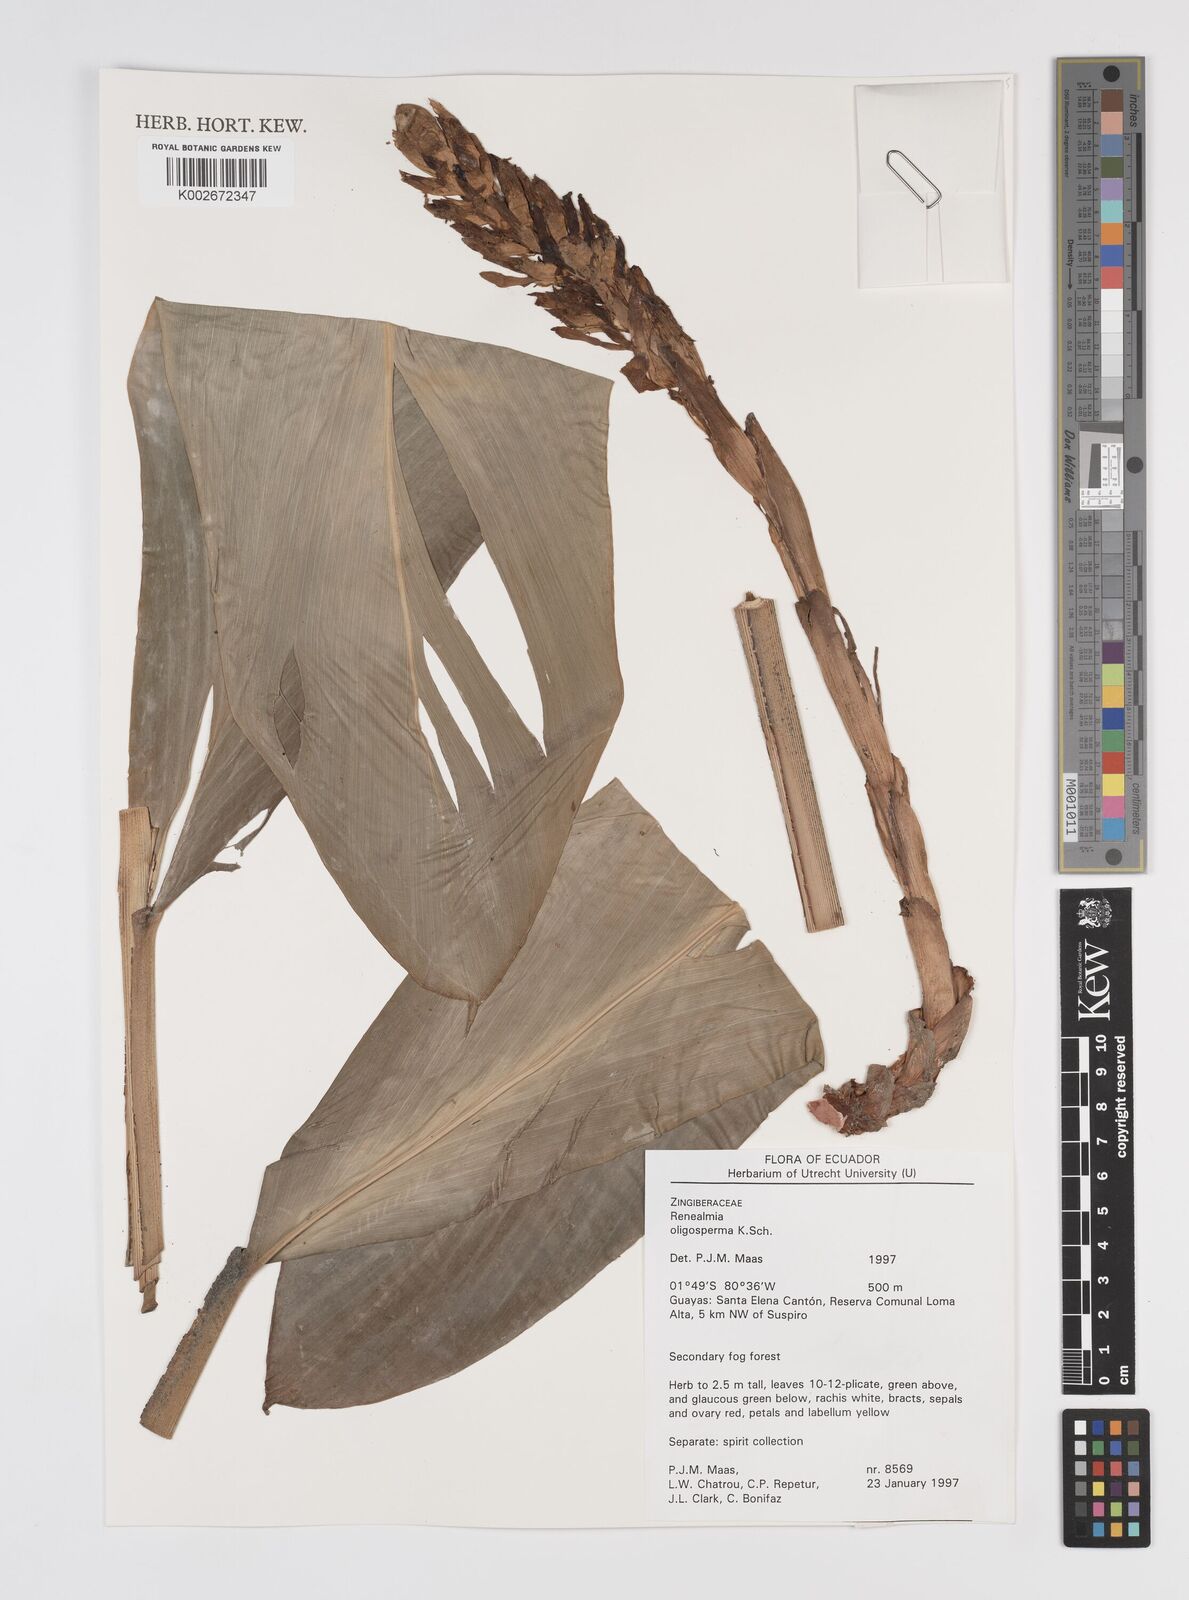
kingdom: Plantae
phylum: Tracheophyta
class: Liliopsida
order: Zingiberales
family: Zingiberaceae
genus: Renealmia
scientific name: Renealmia oligosperma
